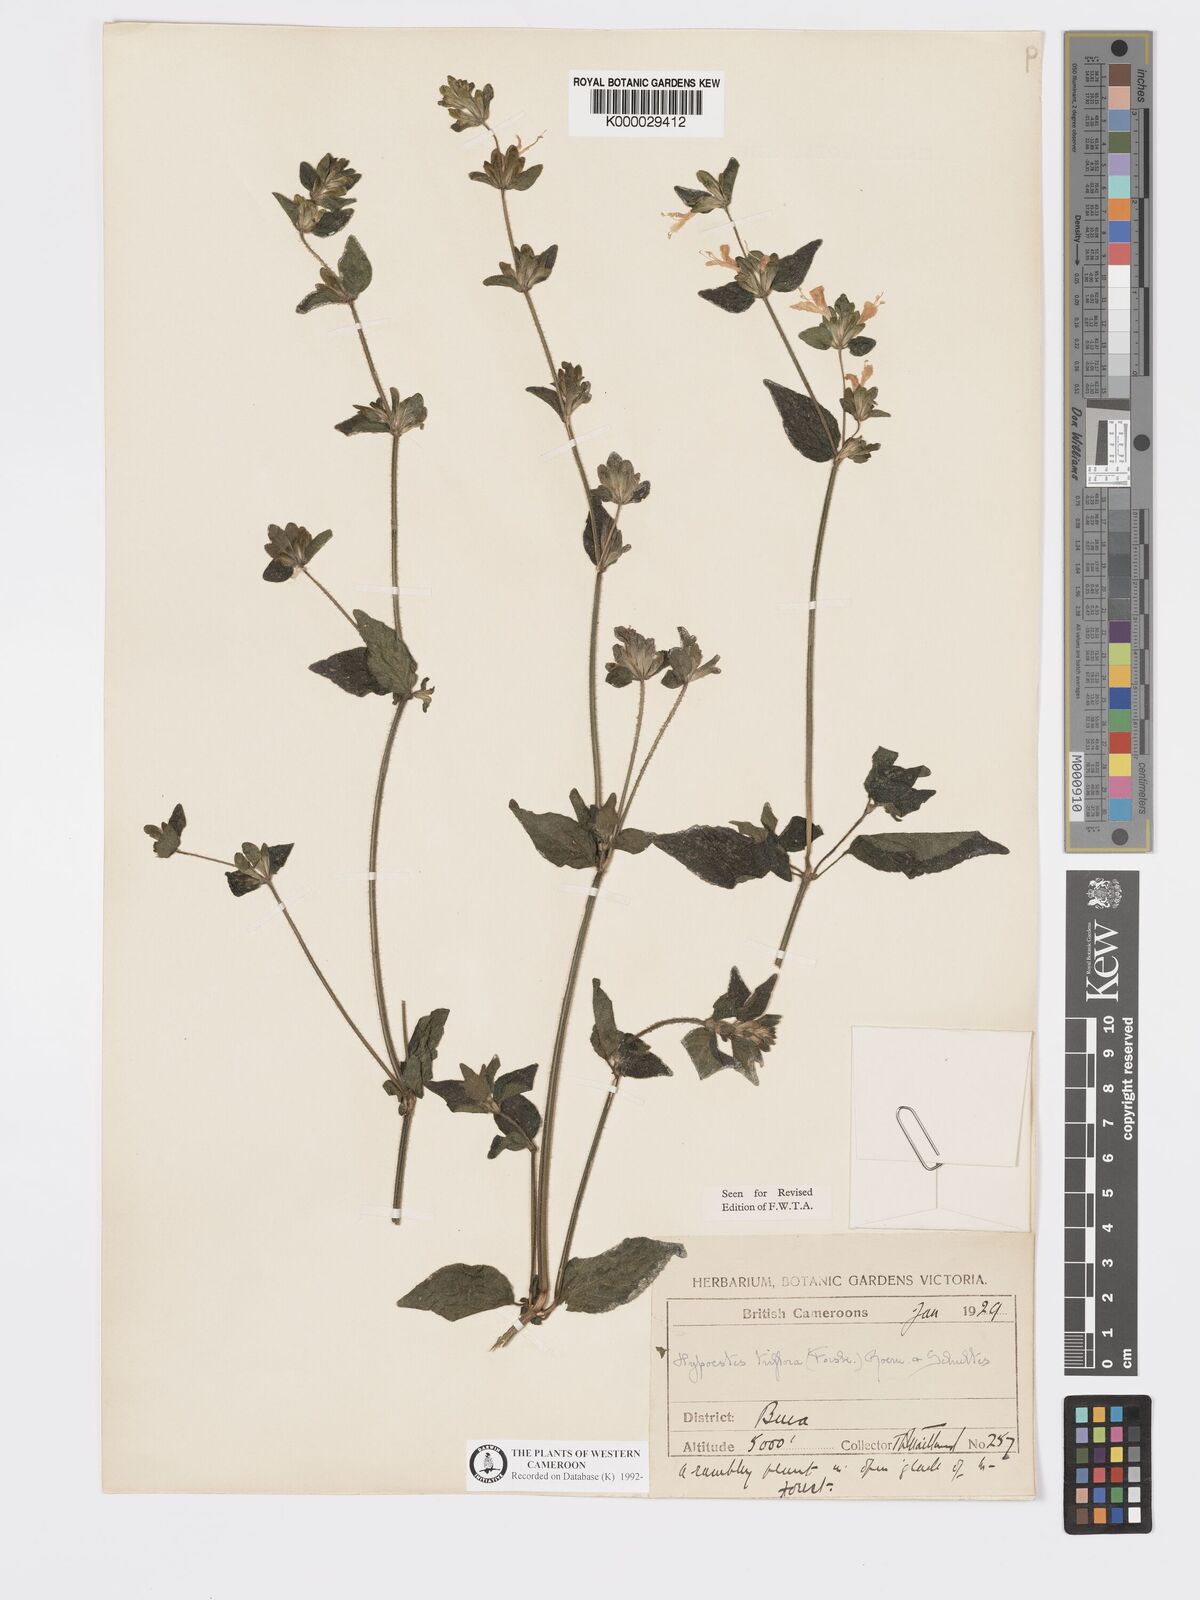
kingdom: Plantae
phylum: Tracheophyta
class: Magnoliopsida
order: Lamiales
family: Acanthaceae
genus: Hypoestes
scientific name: Hypoestes triflora
